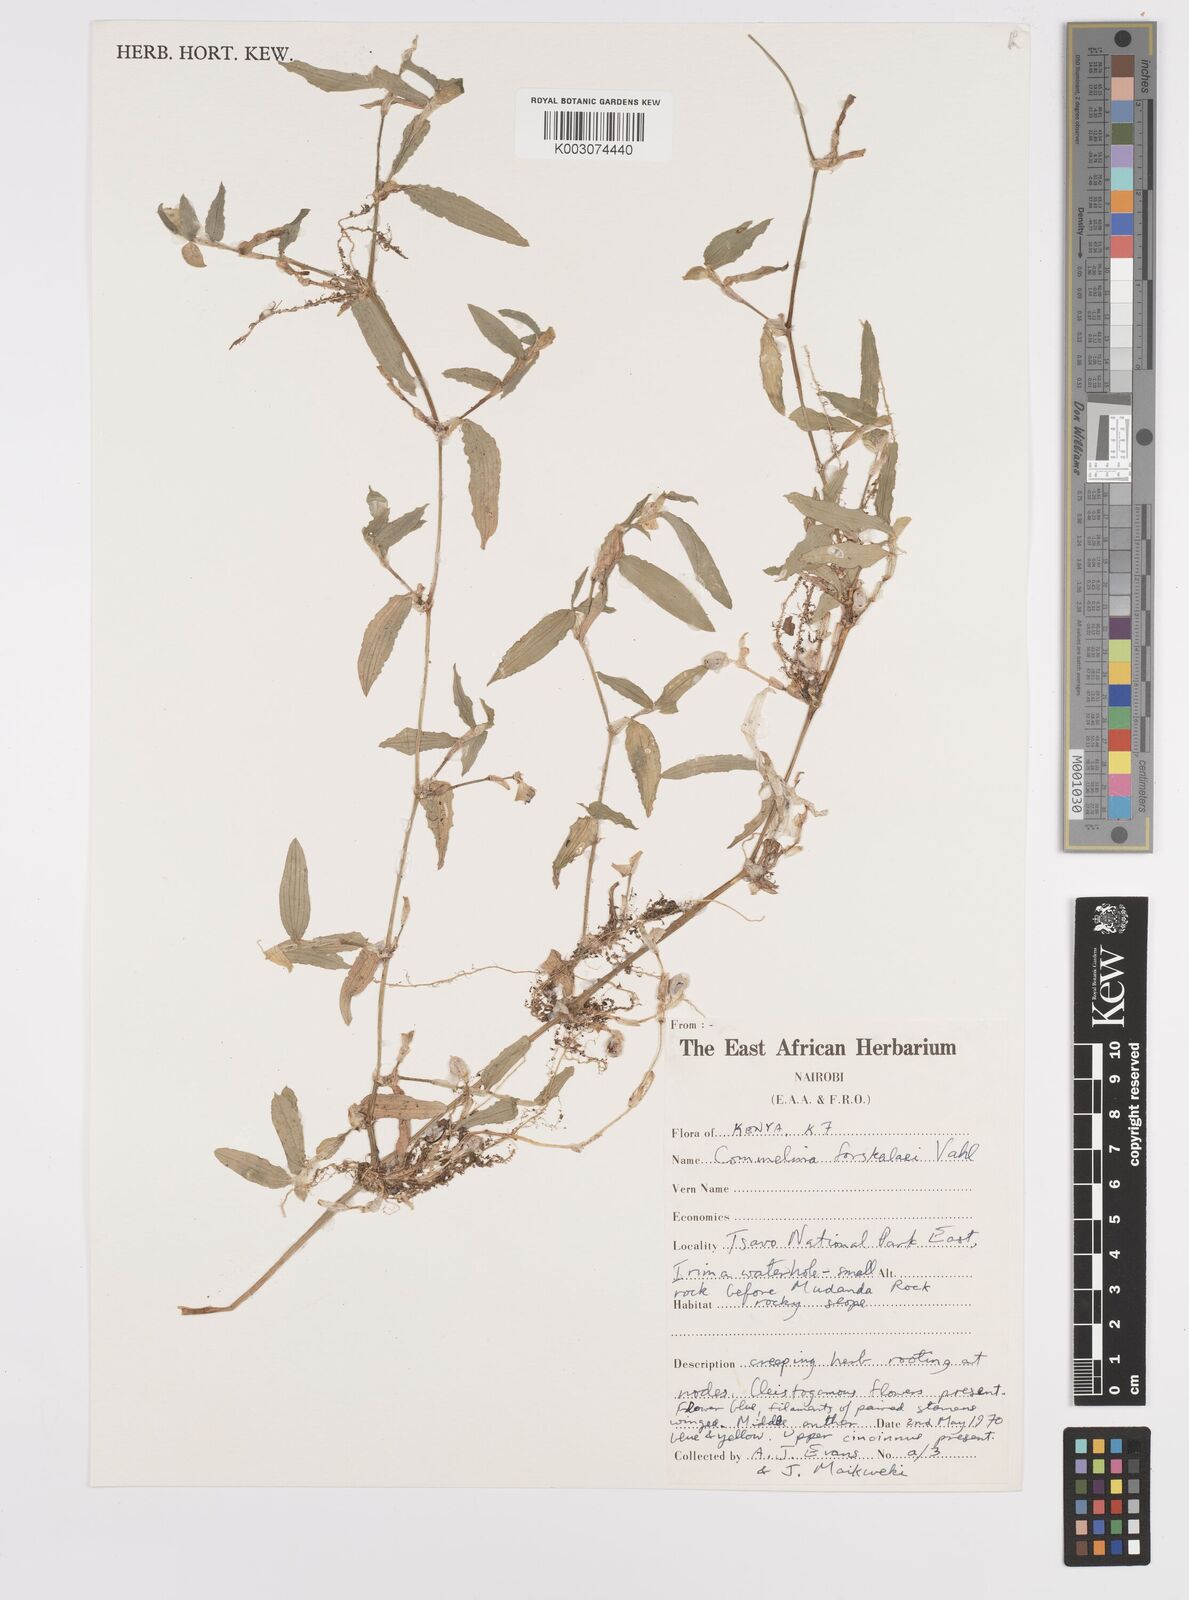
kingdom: Plantae
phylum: Tracheophyta
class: Liliopsida
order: Commelinales
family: Commelinaceae
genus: Commelina
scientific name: Commelina forskaolii
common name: Rat's ear
